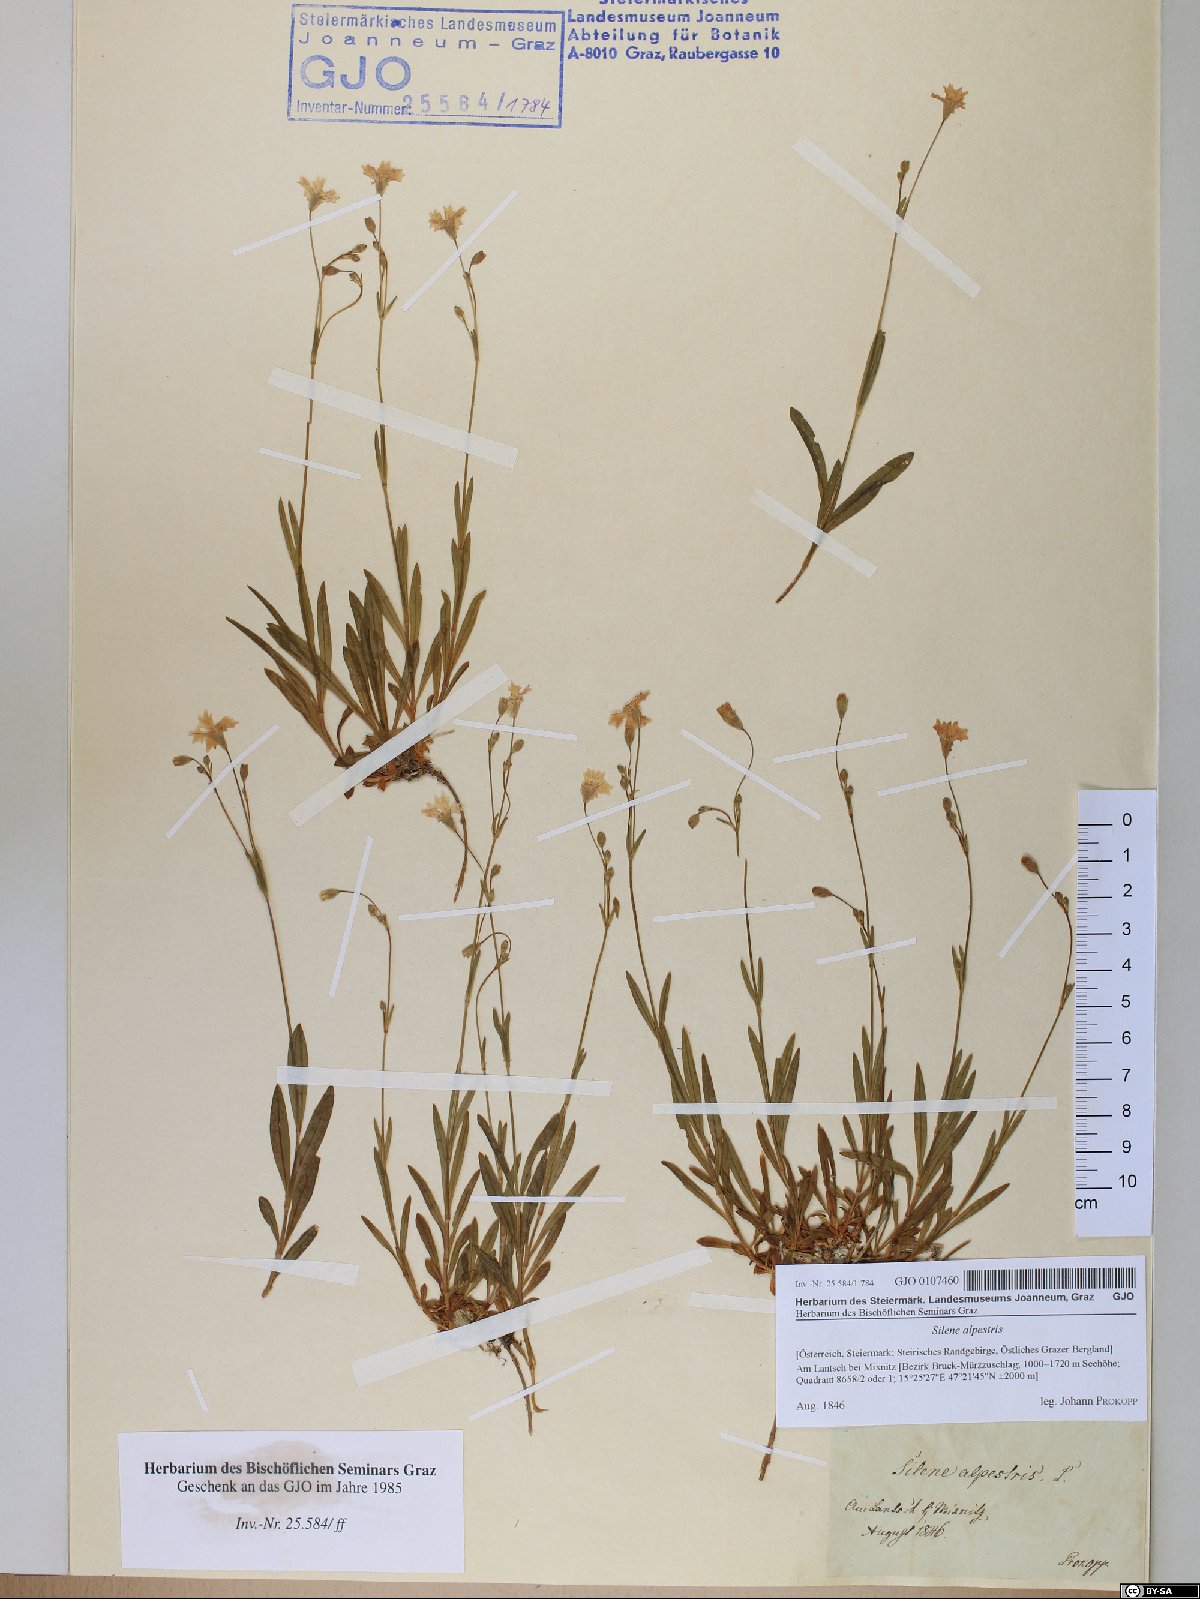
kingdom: Plantae
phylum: Tracheophyta
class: Magnoliopsida
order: Caryophyllales
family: Caryophyllaceae
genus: Heliosperma
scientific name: Heliosperma alpestre
